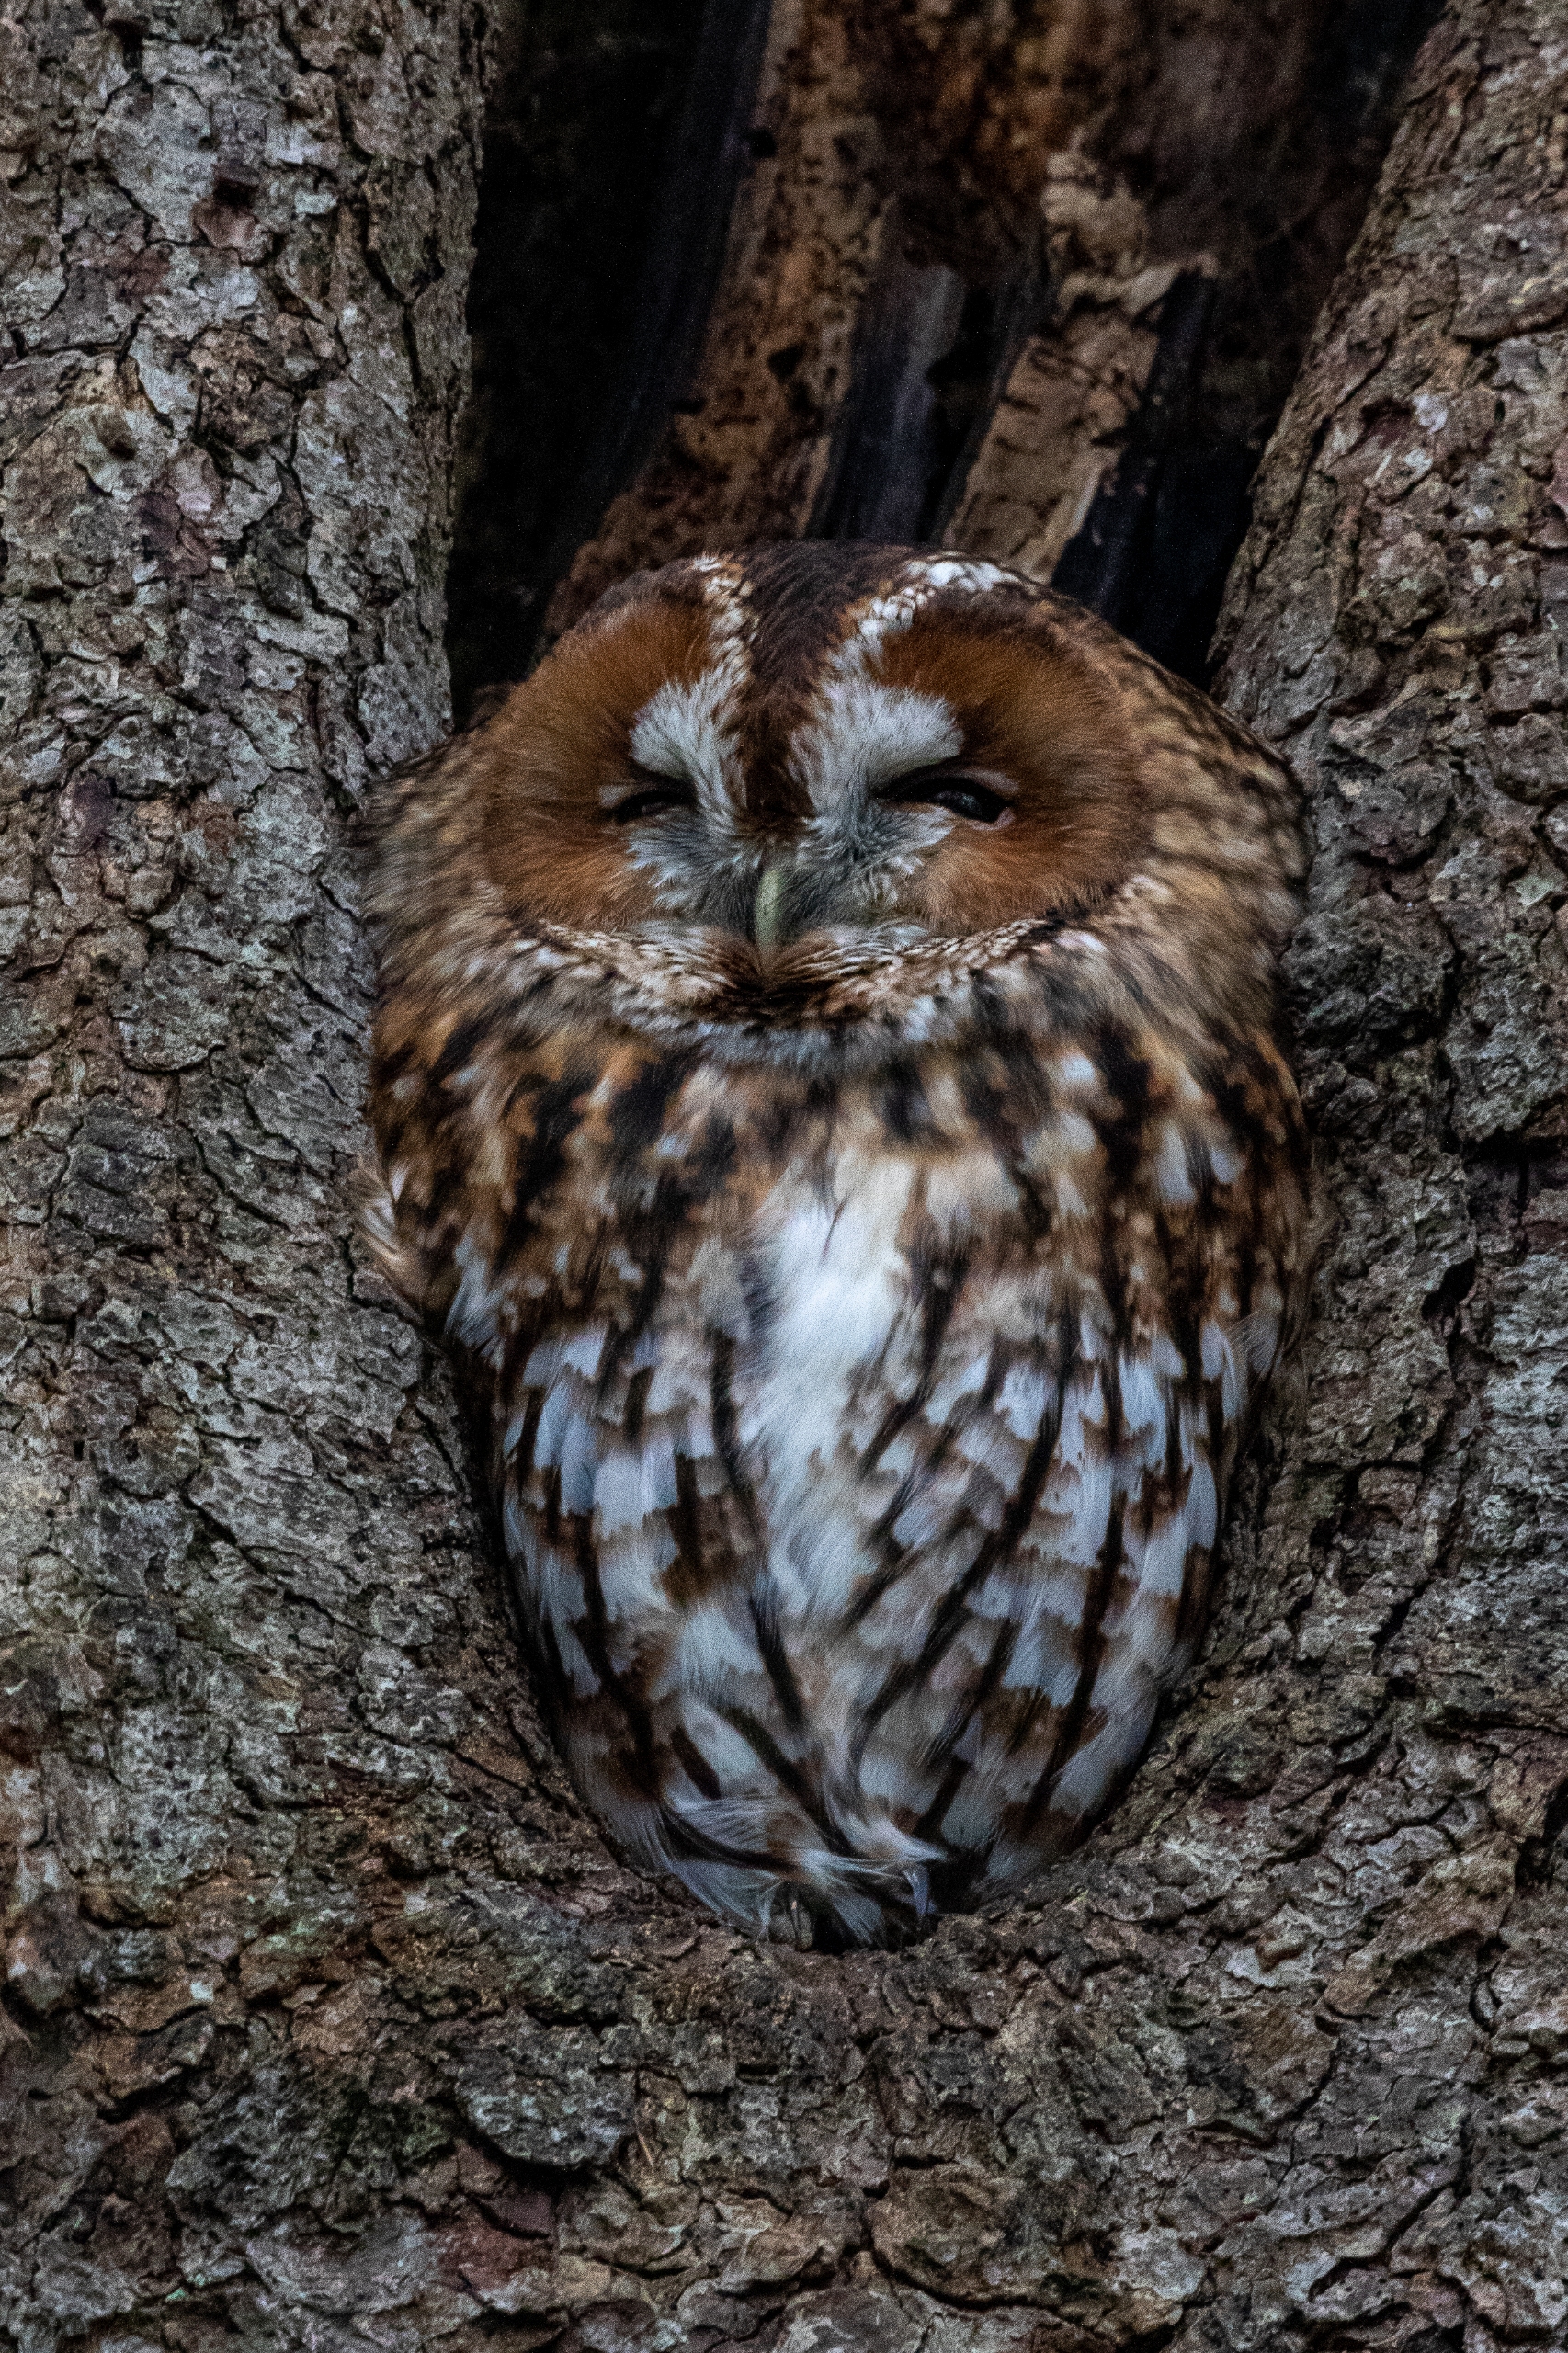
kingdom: Animalia
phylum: Chordata
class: Aves
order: Strigiformes
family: Strigidae
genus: Strix
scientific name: Strix aluco
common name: Natugle
